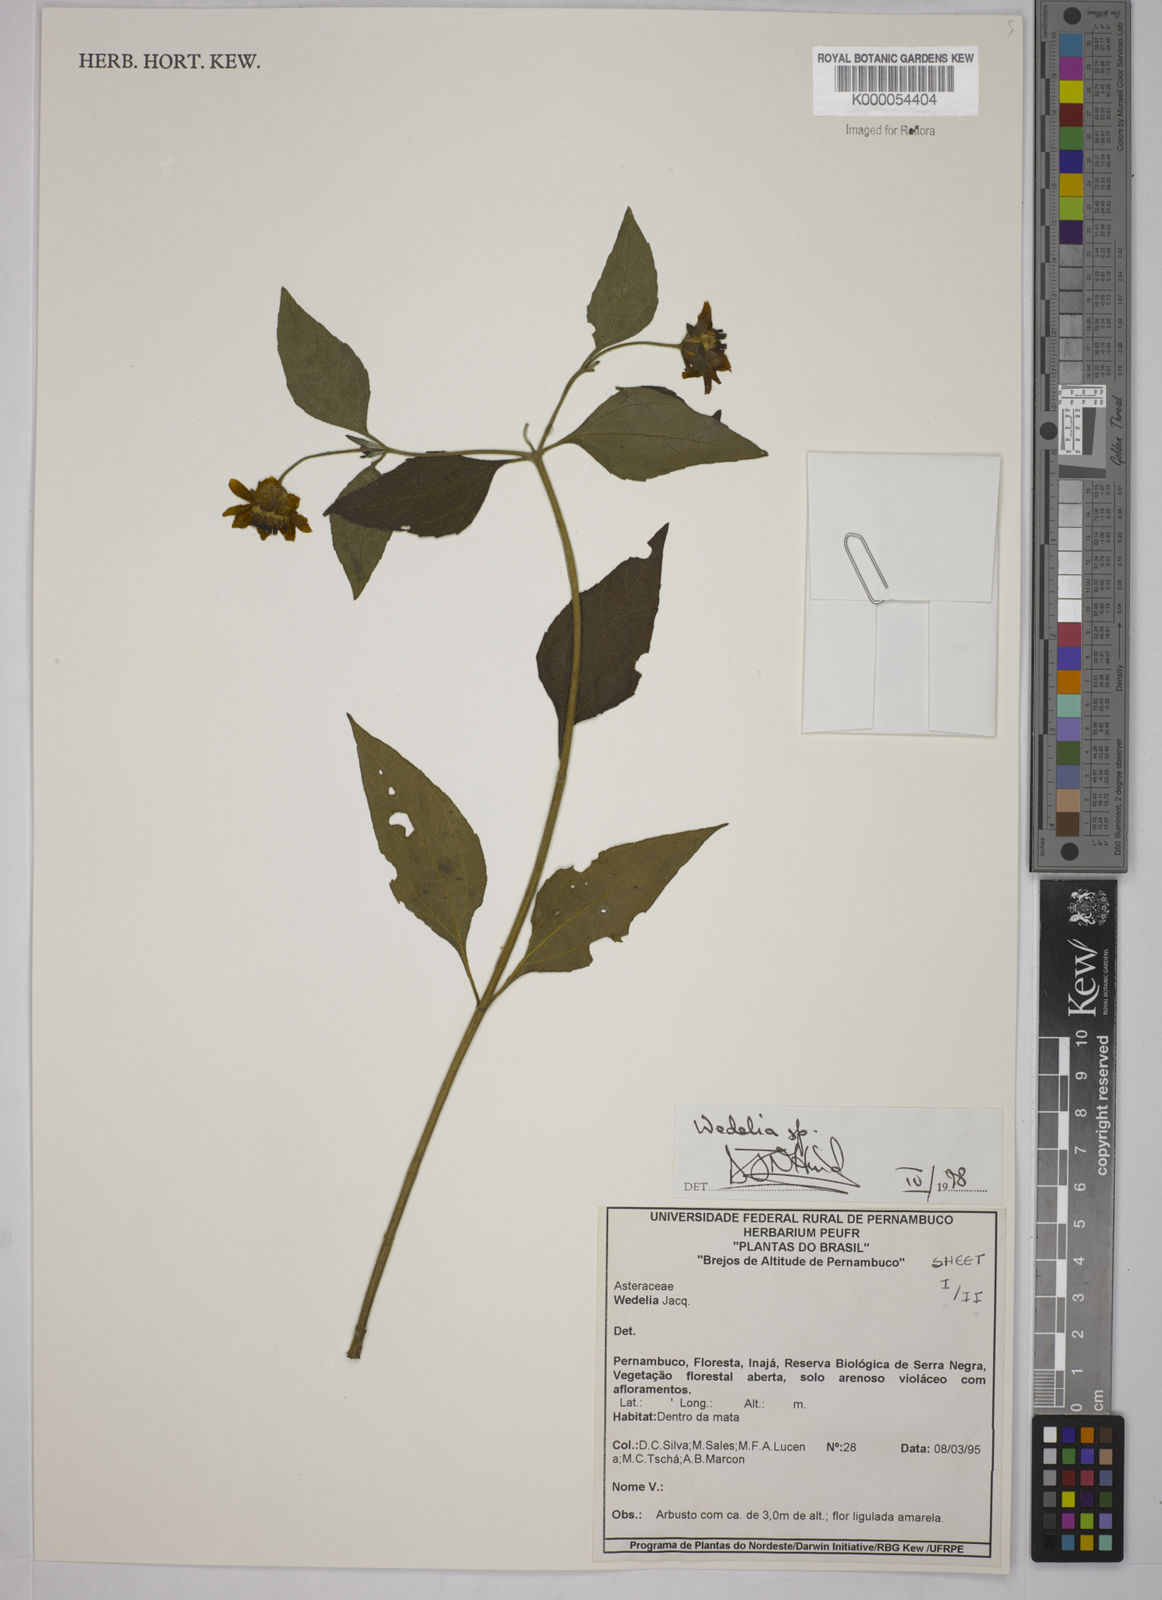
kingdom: Plantae
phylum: Tracheophyta
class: Magnoliopsida
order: Asterales
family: Asteraceae
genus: Wedelia
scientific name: Wedelia
